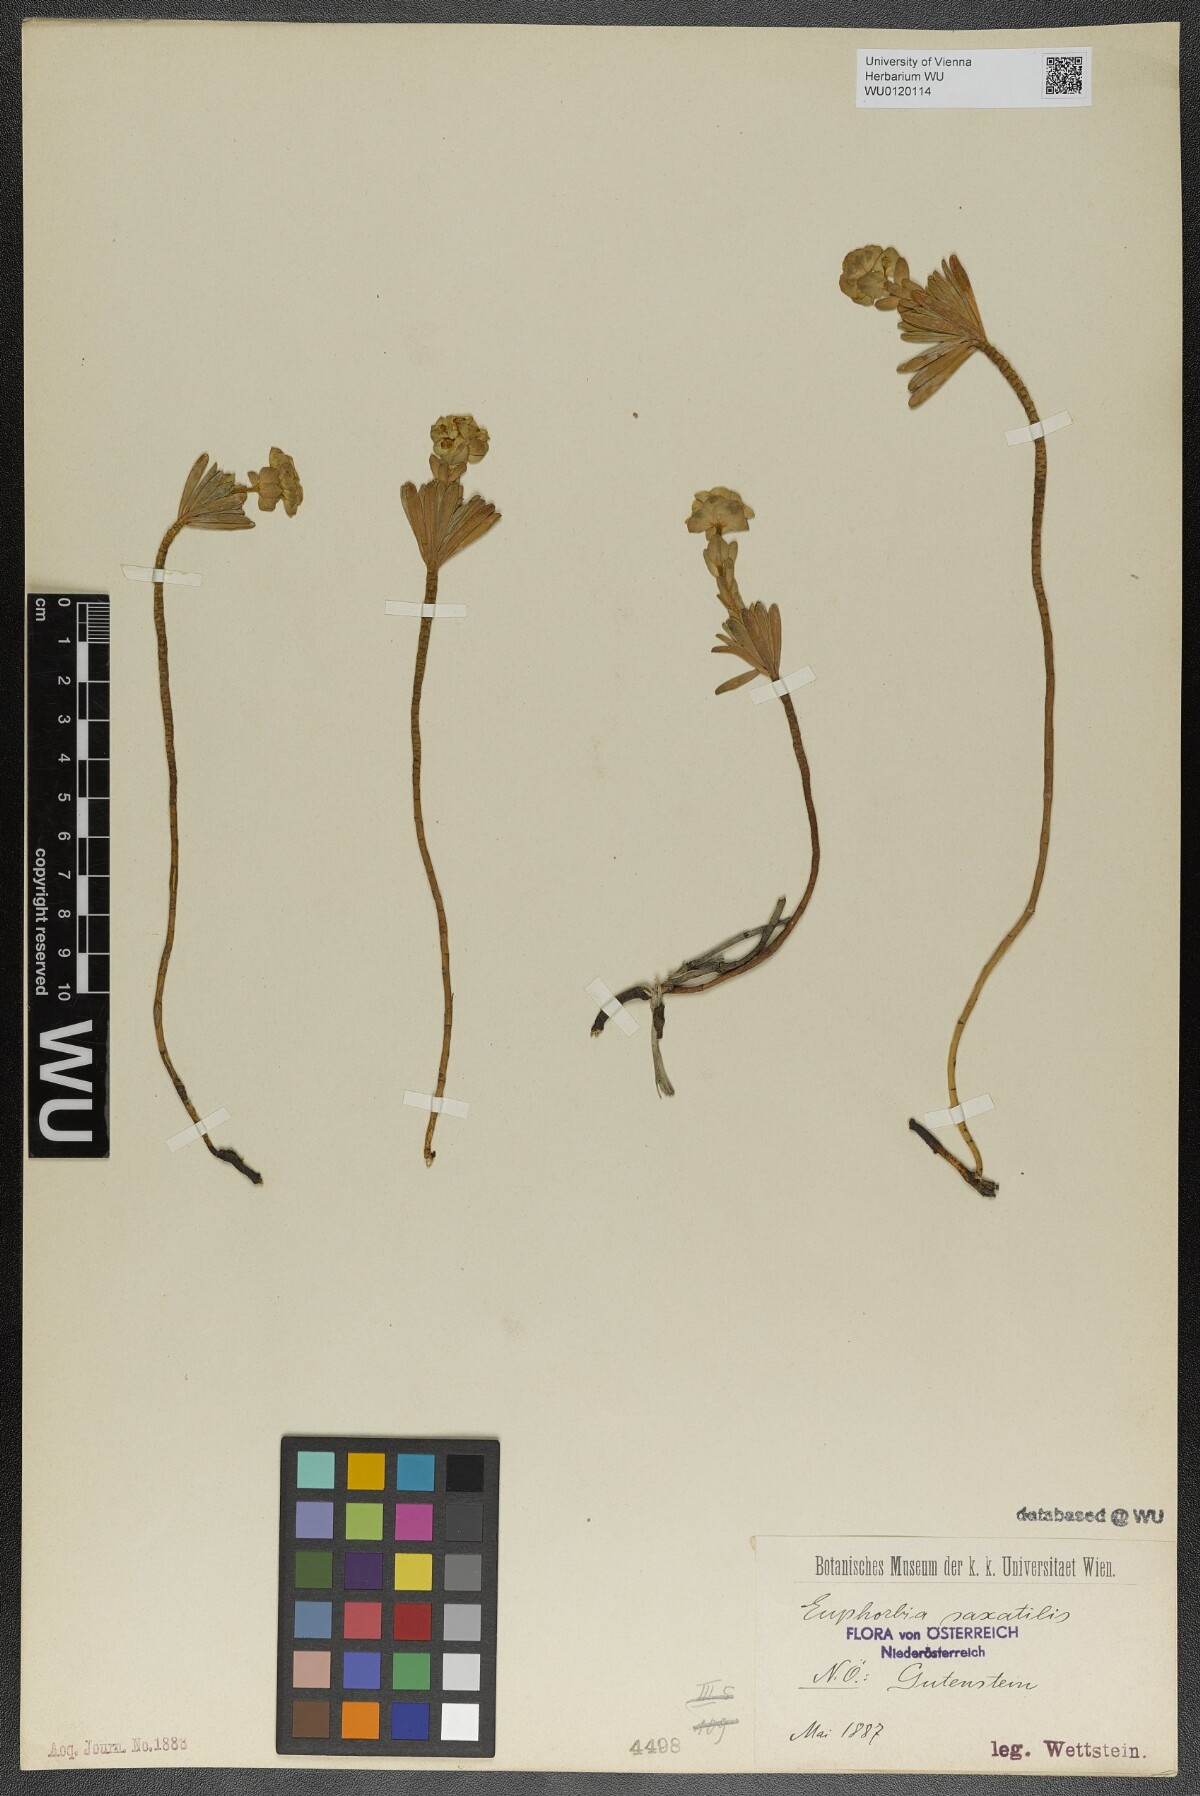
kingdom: Plantae
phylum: Tracheophyta
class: Magnoliopsida
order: Malpighiales
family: Euphorbiaceae
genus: Euphorbia
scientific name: Euphorbia saxatilis
